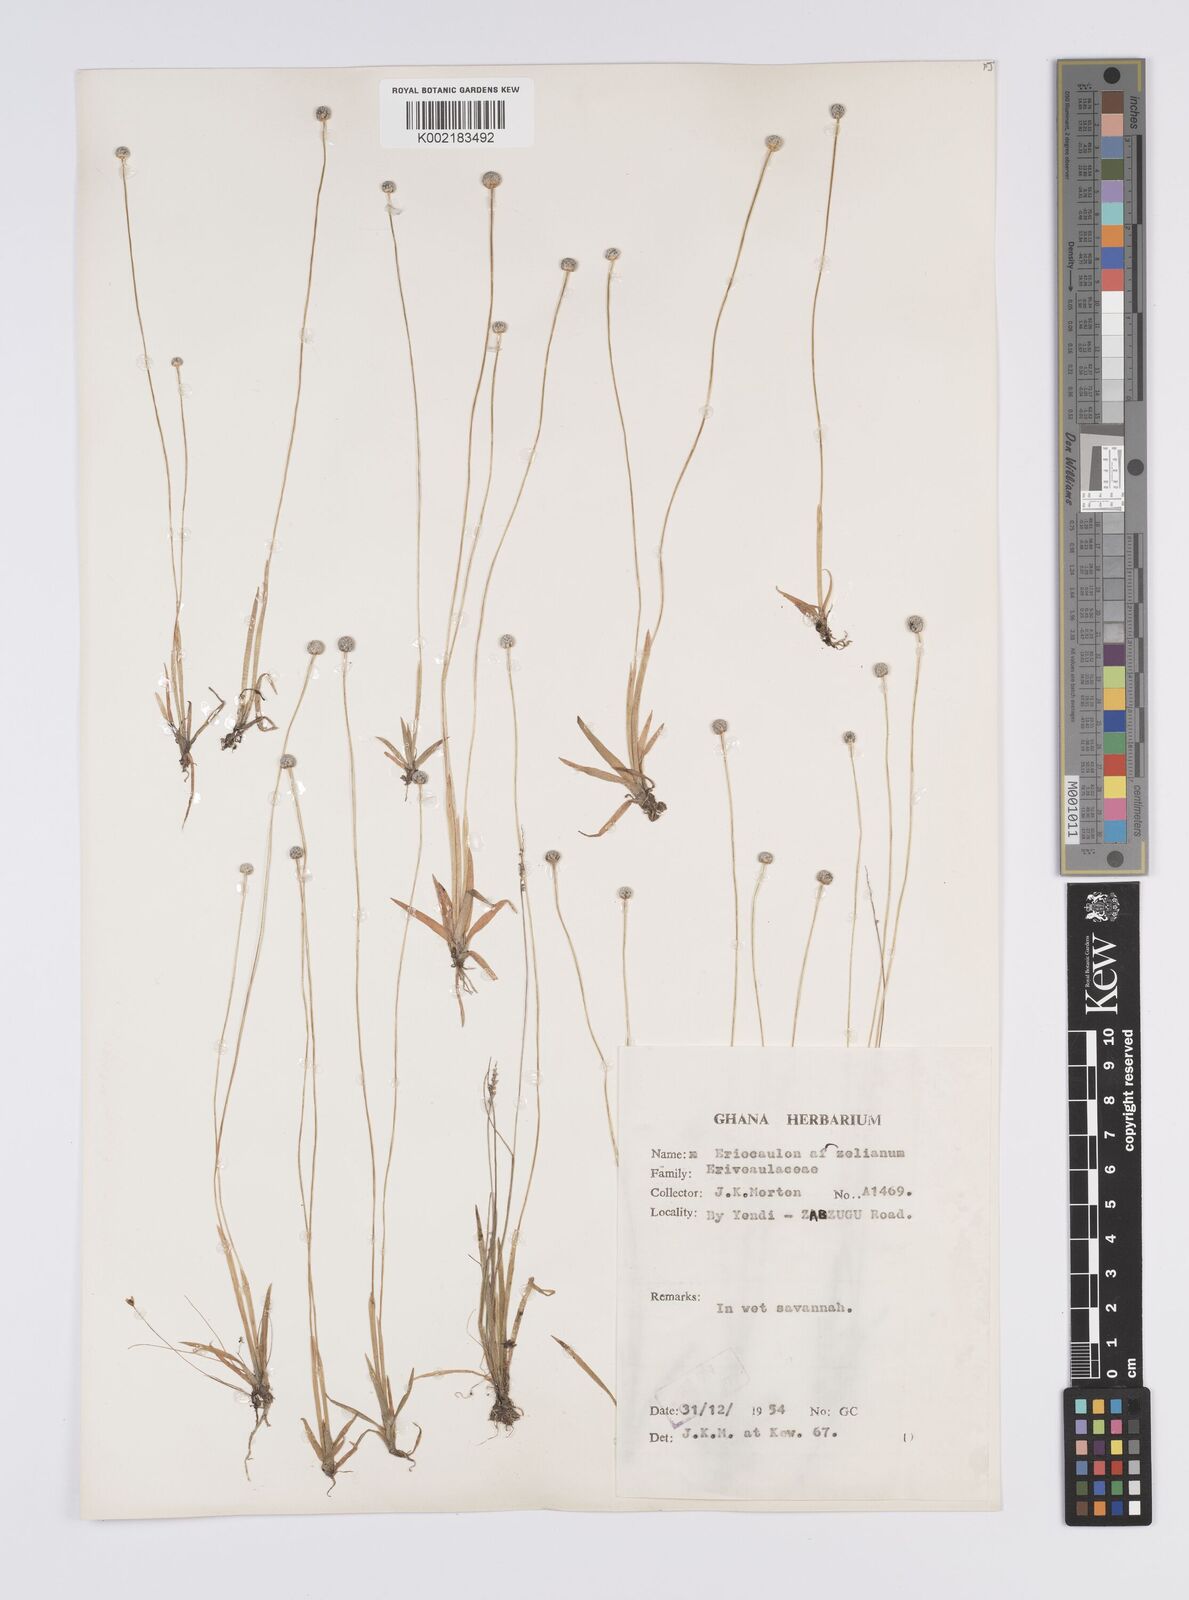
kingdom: Plantae
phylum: Tracheophyta
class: Liliopsida
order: Poales
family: Eriocaulaceae
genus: Eriocaulon
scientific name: Eriocaulon afzelianum
